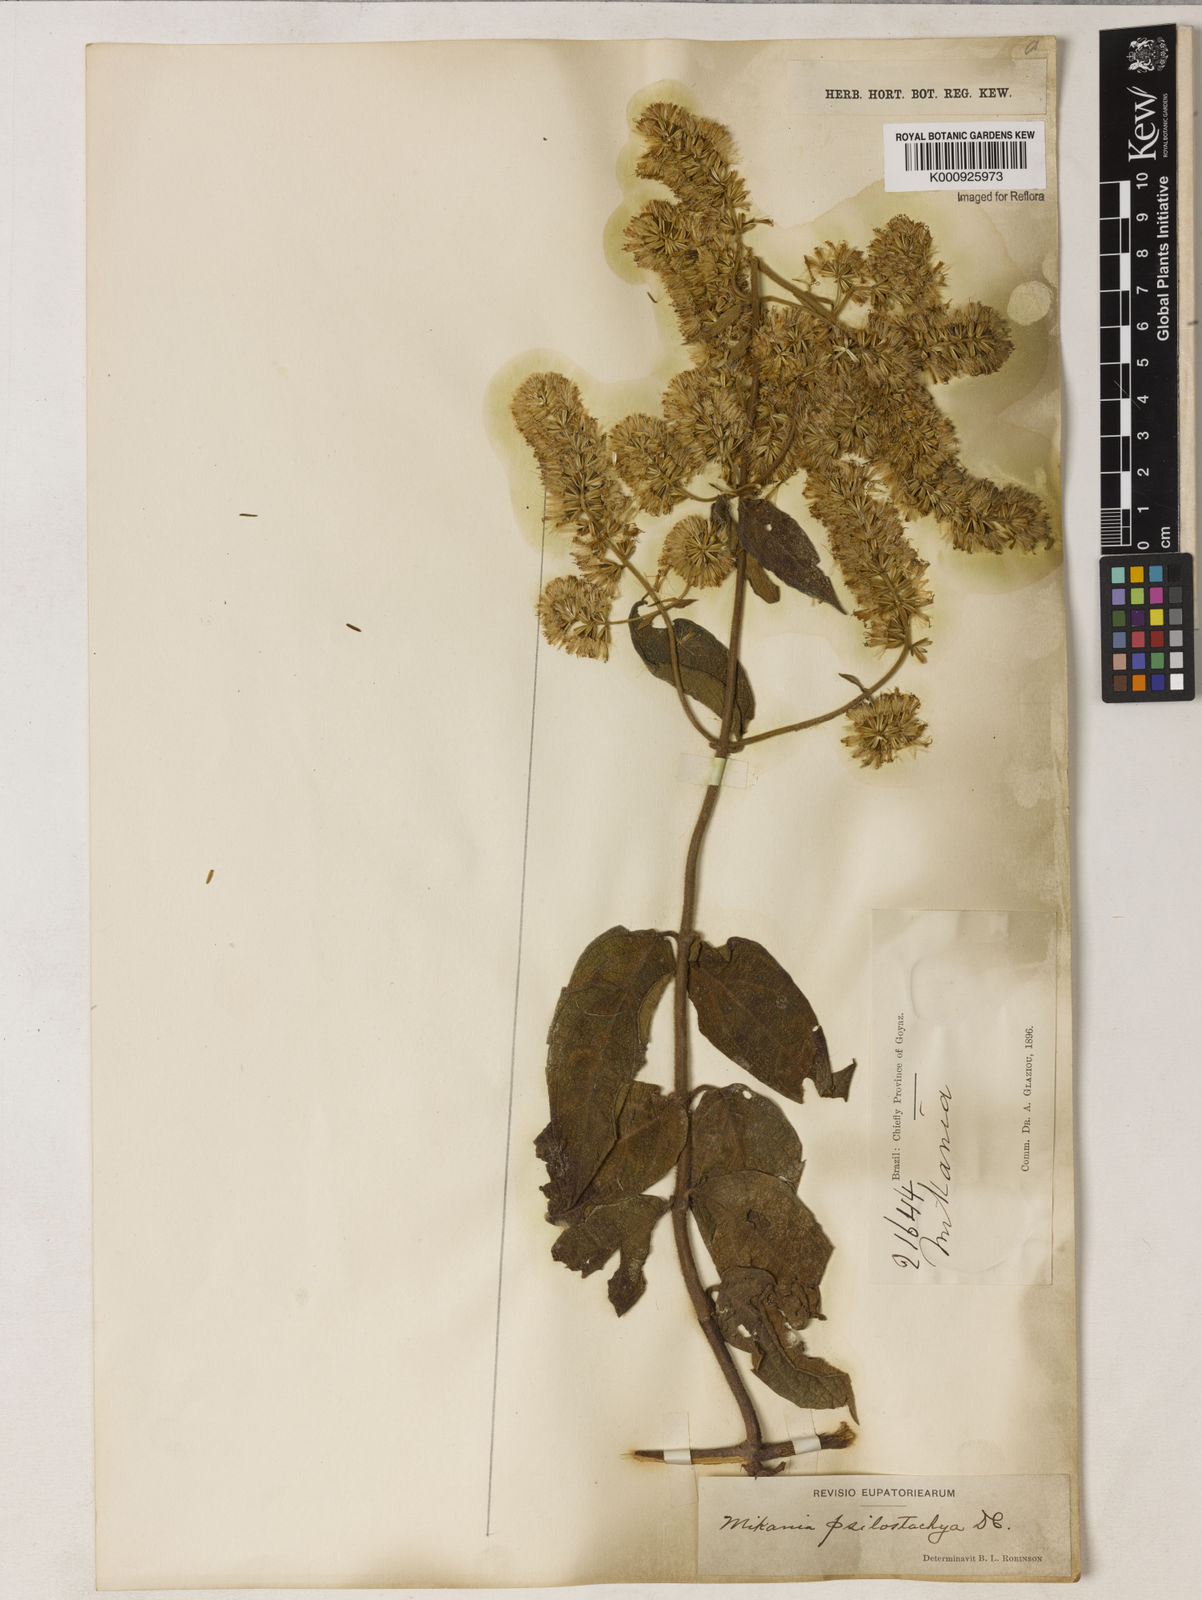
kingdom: Plantae
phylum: Tracheophyta
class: Magnoliopsida
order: Asterales
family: Asteraceae
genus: Mikania
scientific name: Mikania psilostachya
